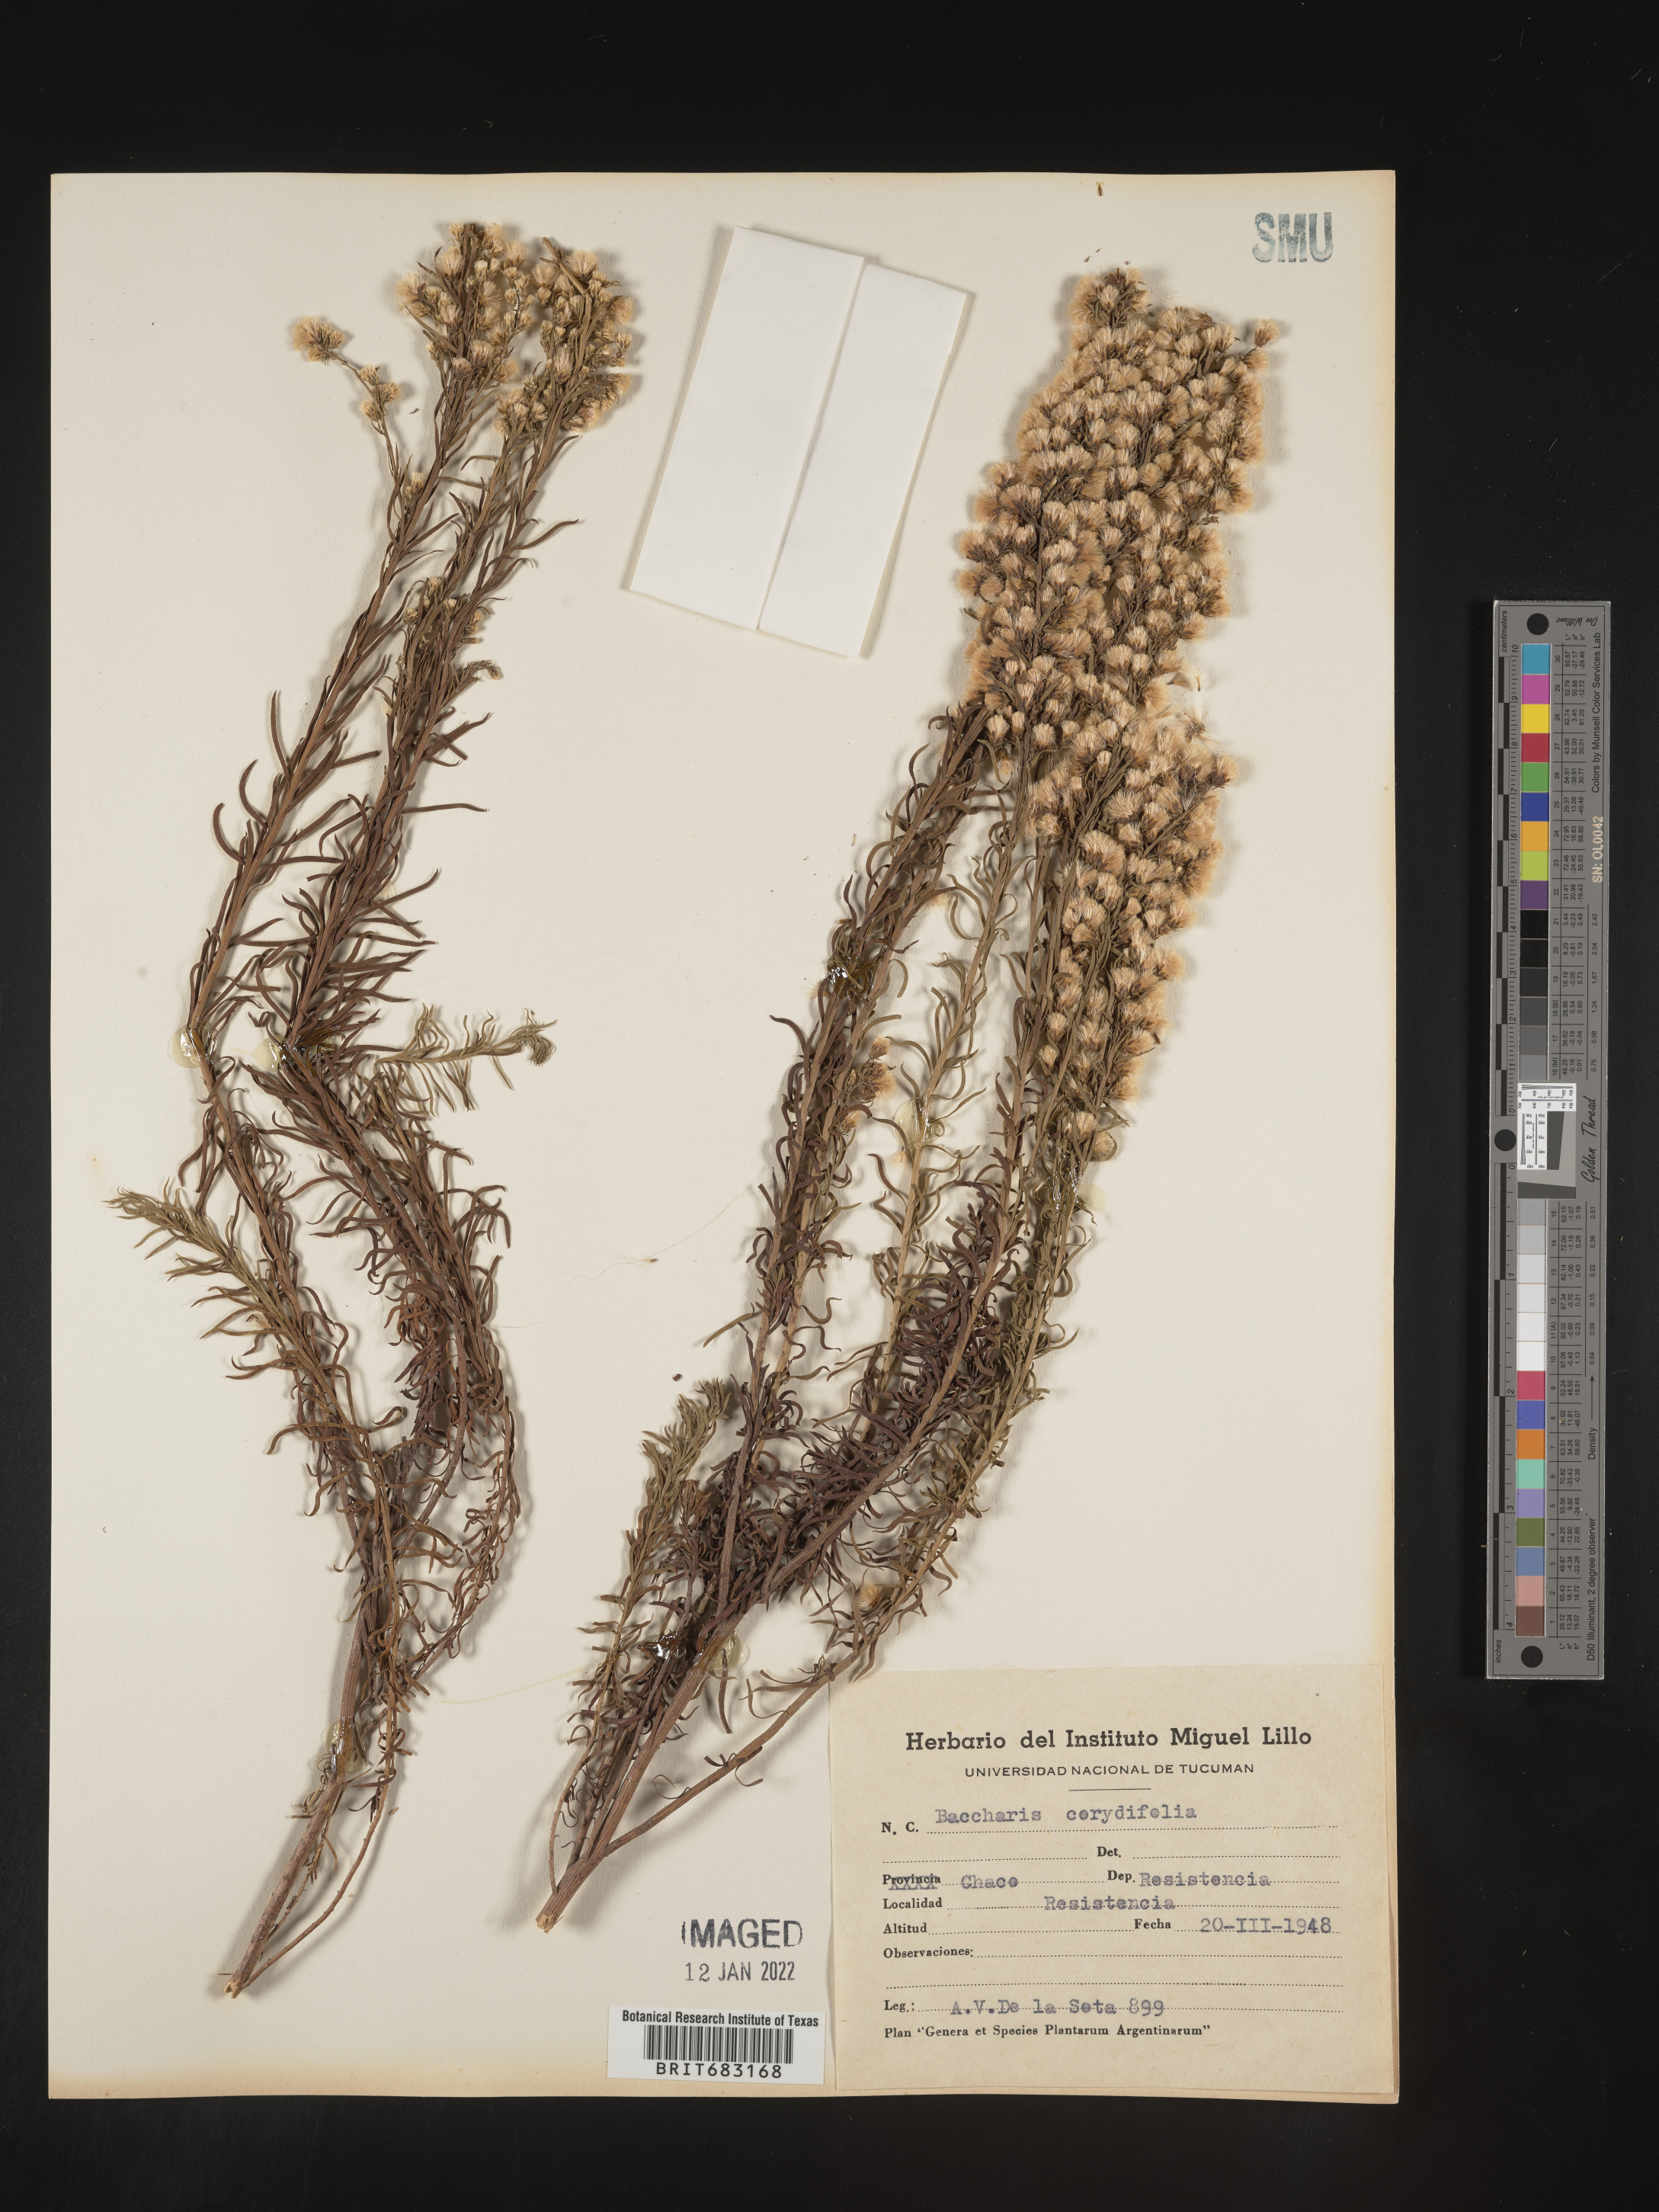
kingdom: Plantae
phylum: Tracheophyta
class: Magnoliopsida
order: Asterales
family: Asteraceae
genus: Baccharis
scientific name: Baccharis
